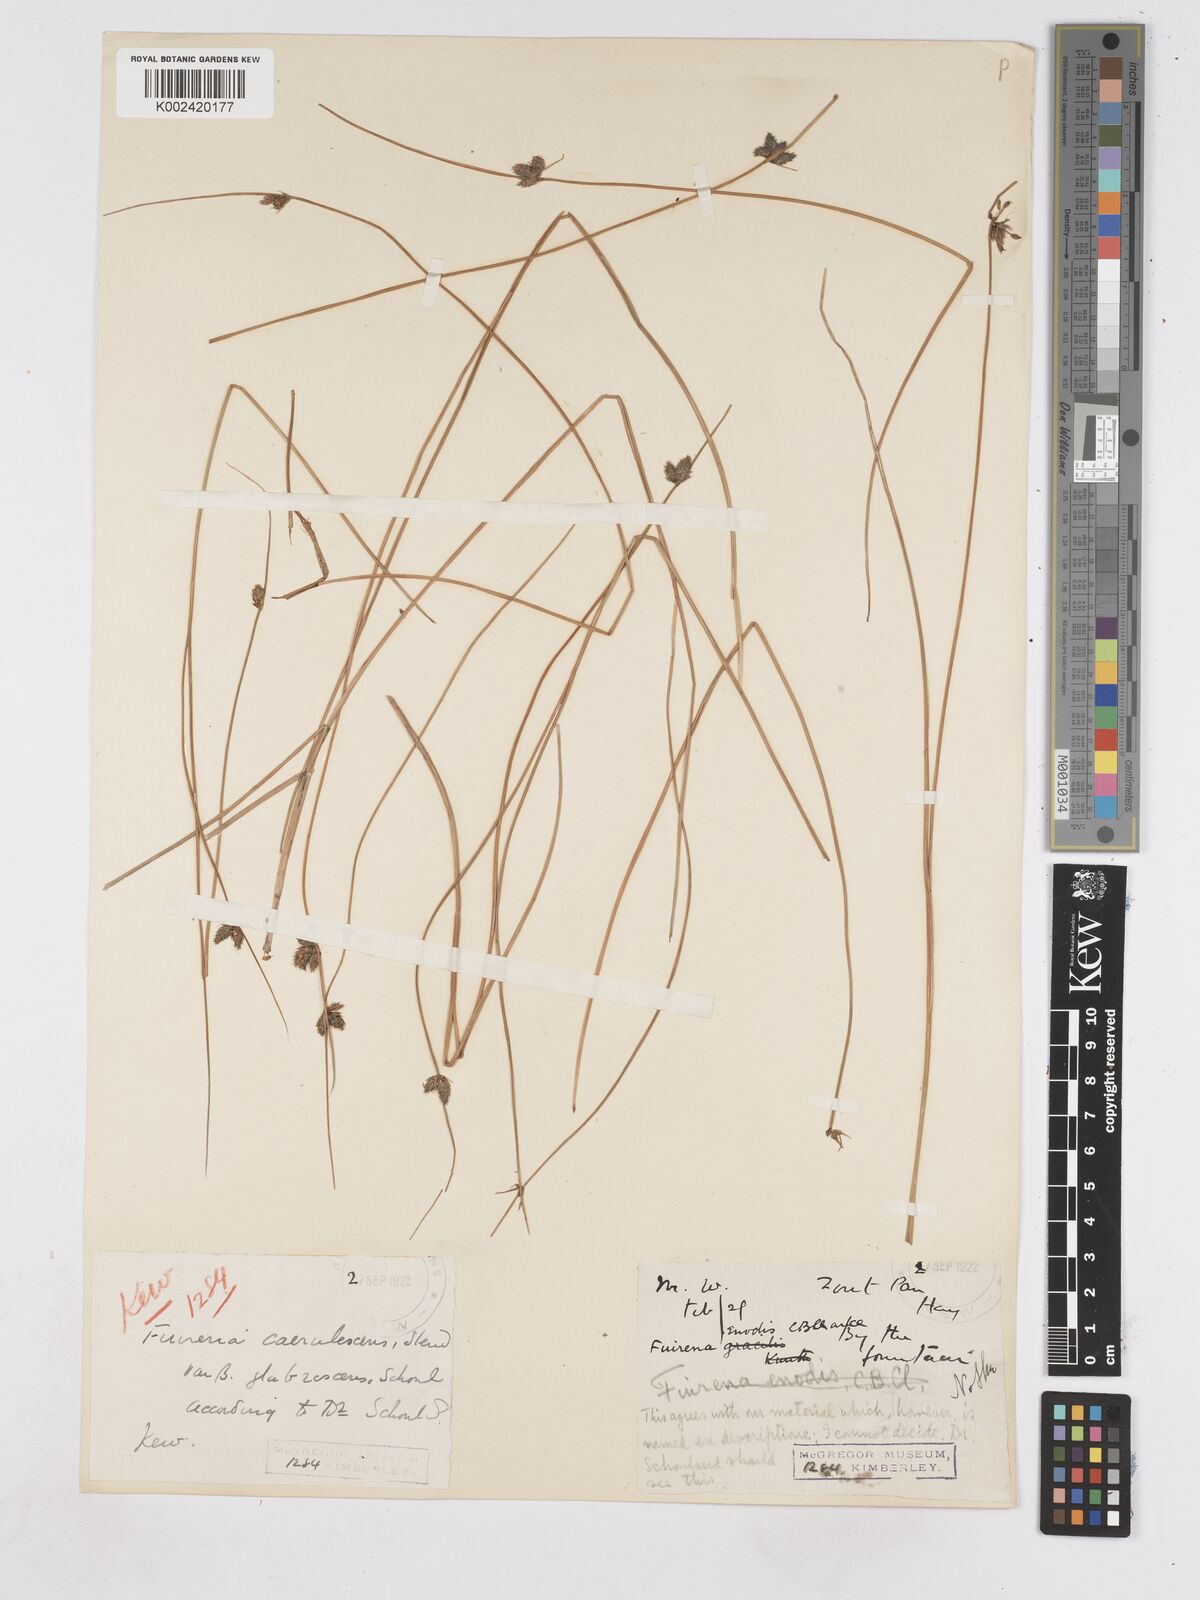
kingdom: Plantae
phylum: Tracheophyta
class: Liliopsida
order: Poales
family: Cyperaceae
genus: Fuirena
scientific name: Fuirena coerulescens
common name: Blue umbrella-sedge
